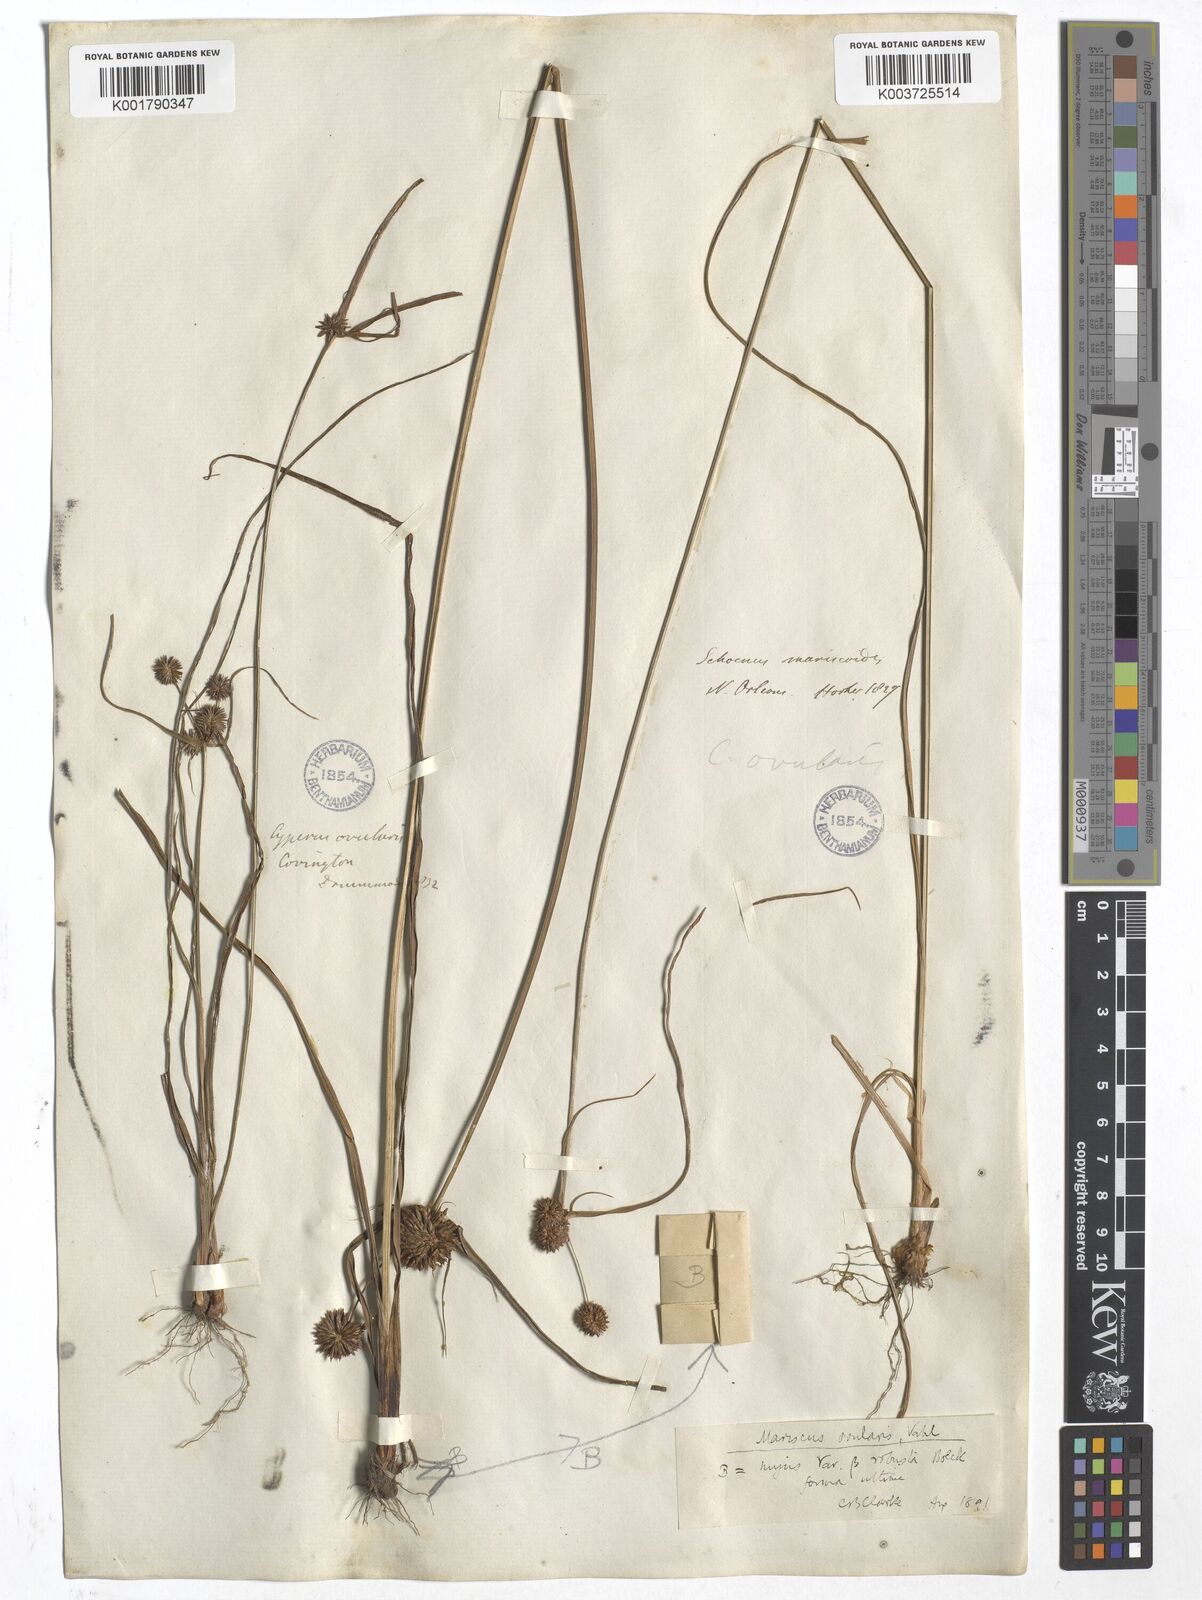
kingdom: Plantae
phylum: Tracheophyta
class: Liliopsida
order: Poales
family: Cyperaceae
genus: Cyperus
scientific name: Cyperus echinatus
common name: Teasel sedge
